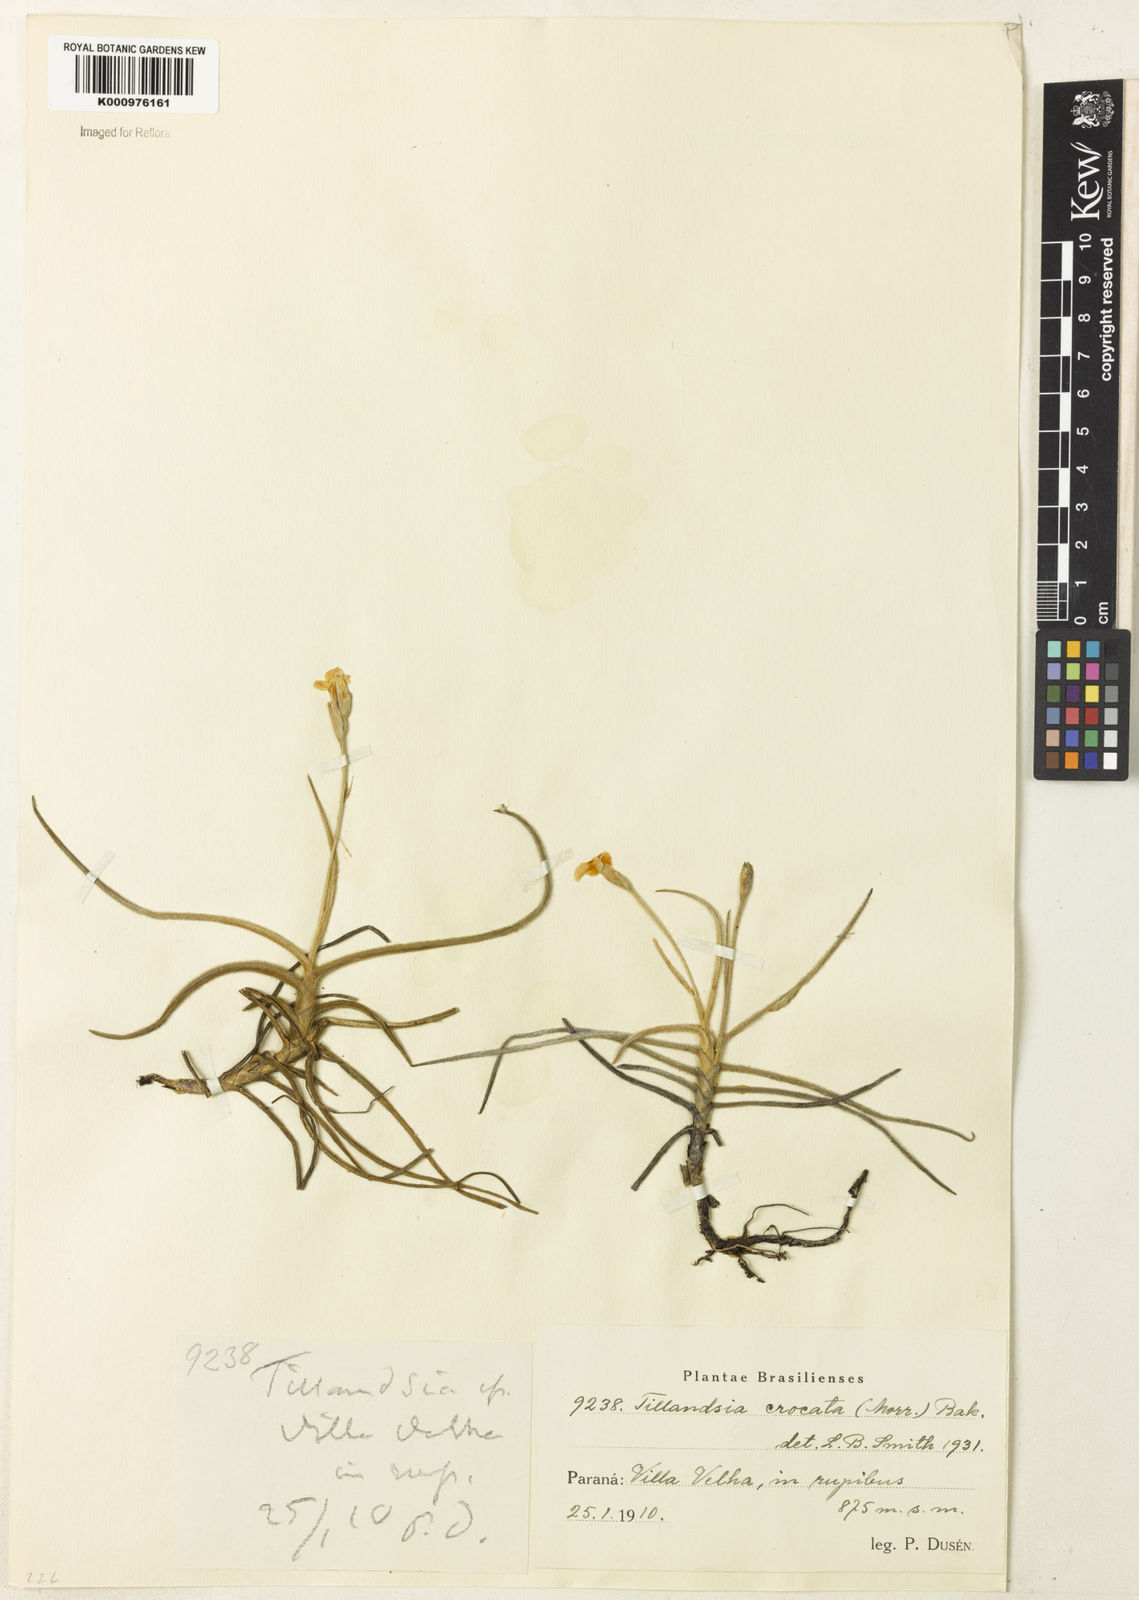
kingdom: Plantae
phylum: Tracheophyta
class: Liliopsida
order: Poales
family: Bromeliaceae
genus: Tillandsia
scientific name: Tillandsia
